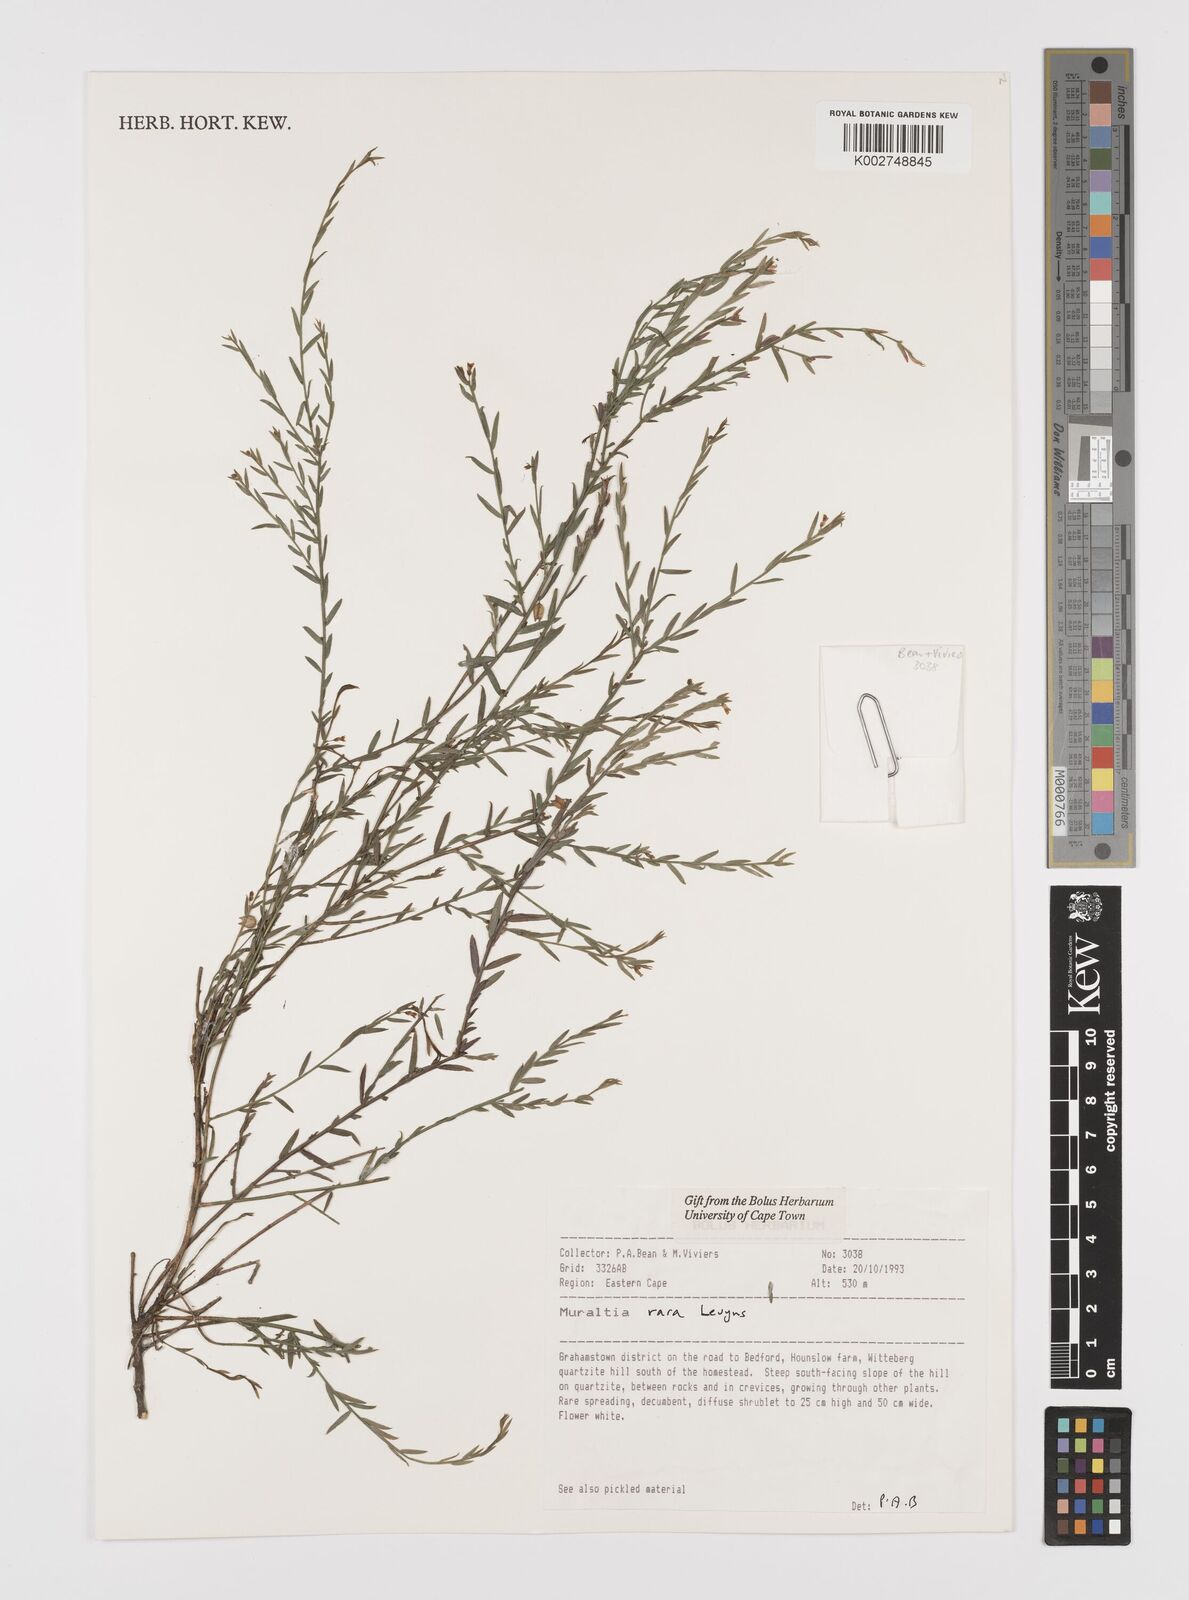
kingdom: Plantae
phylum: Tracheophyta
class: Magnoliopsida
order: Fabales
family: Polygalaceae
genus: Muraltia
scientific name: Muraltia rara
